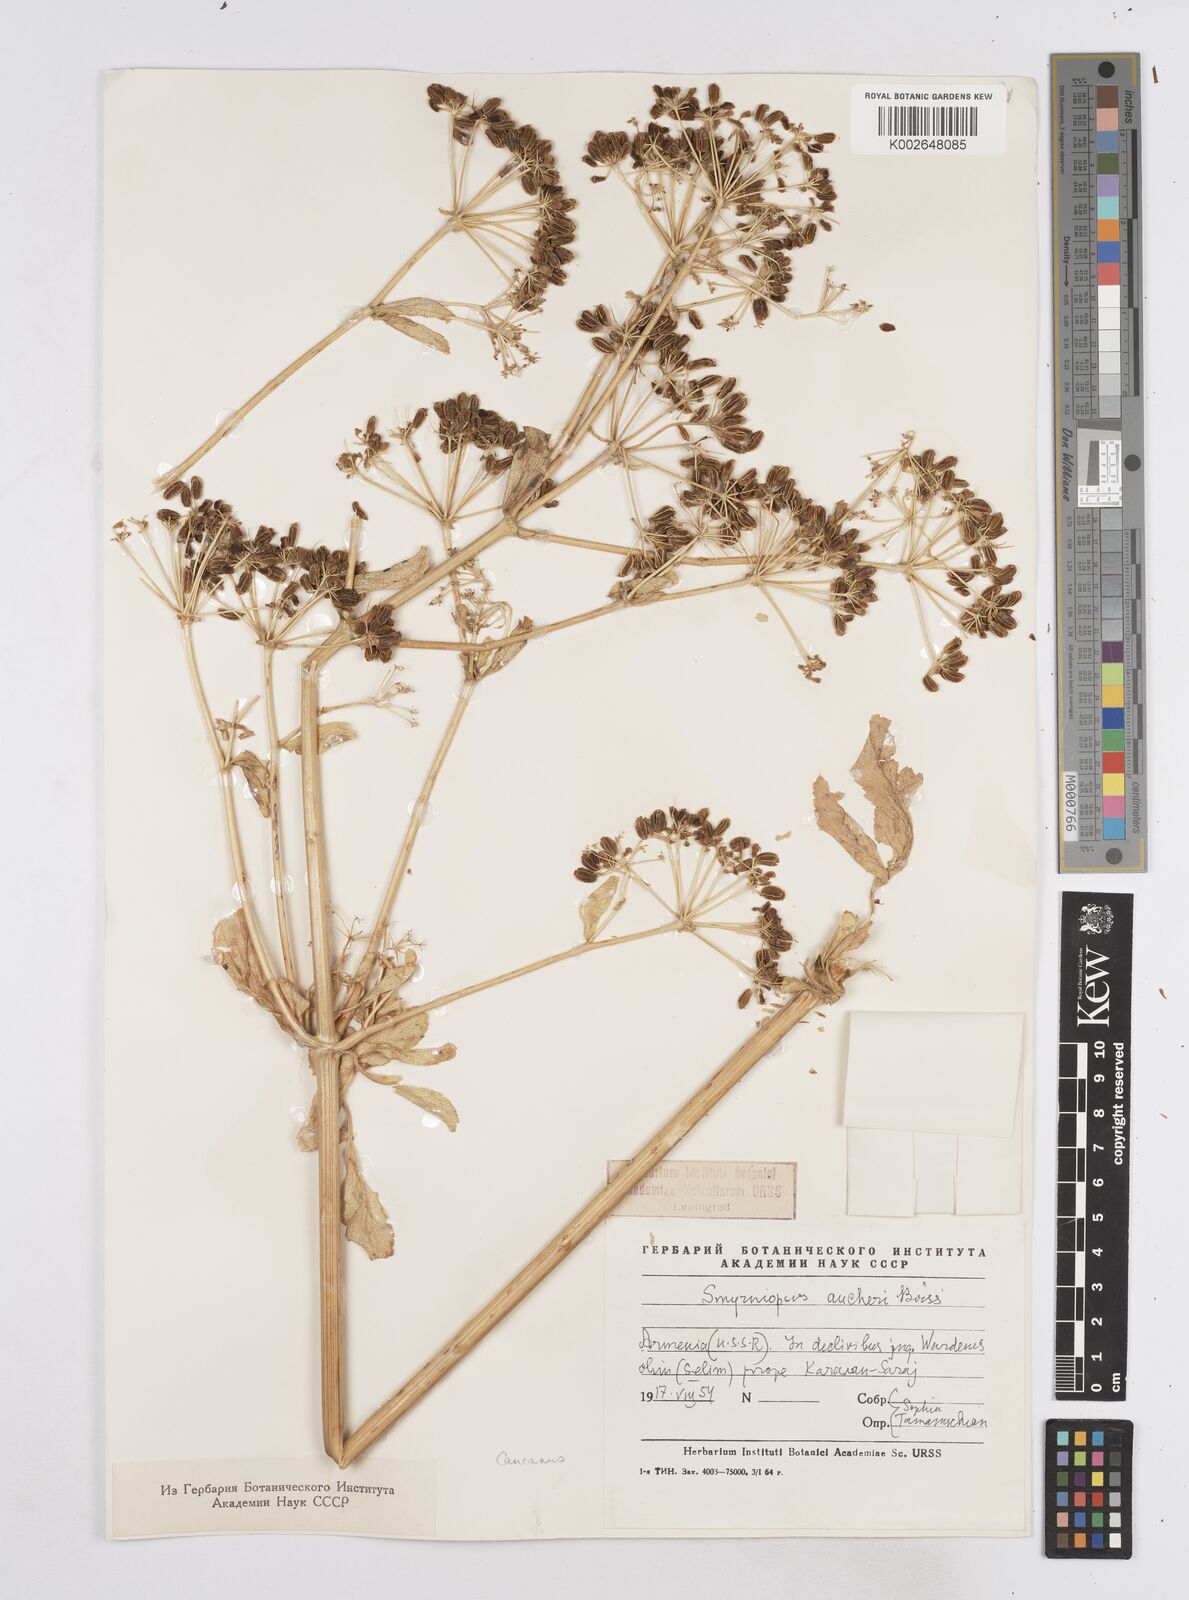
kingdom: Plantae
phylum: Tracheophyta
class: Magnoliopsida
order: Apiales
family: Apiaceae
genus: Smyrniopsis
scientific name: Smyrniopsis aucheri
